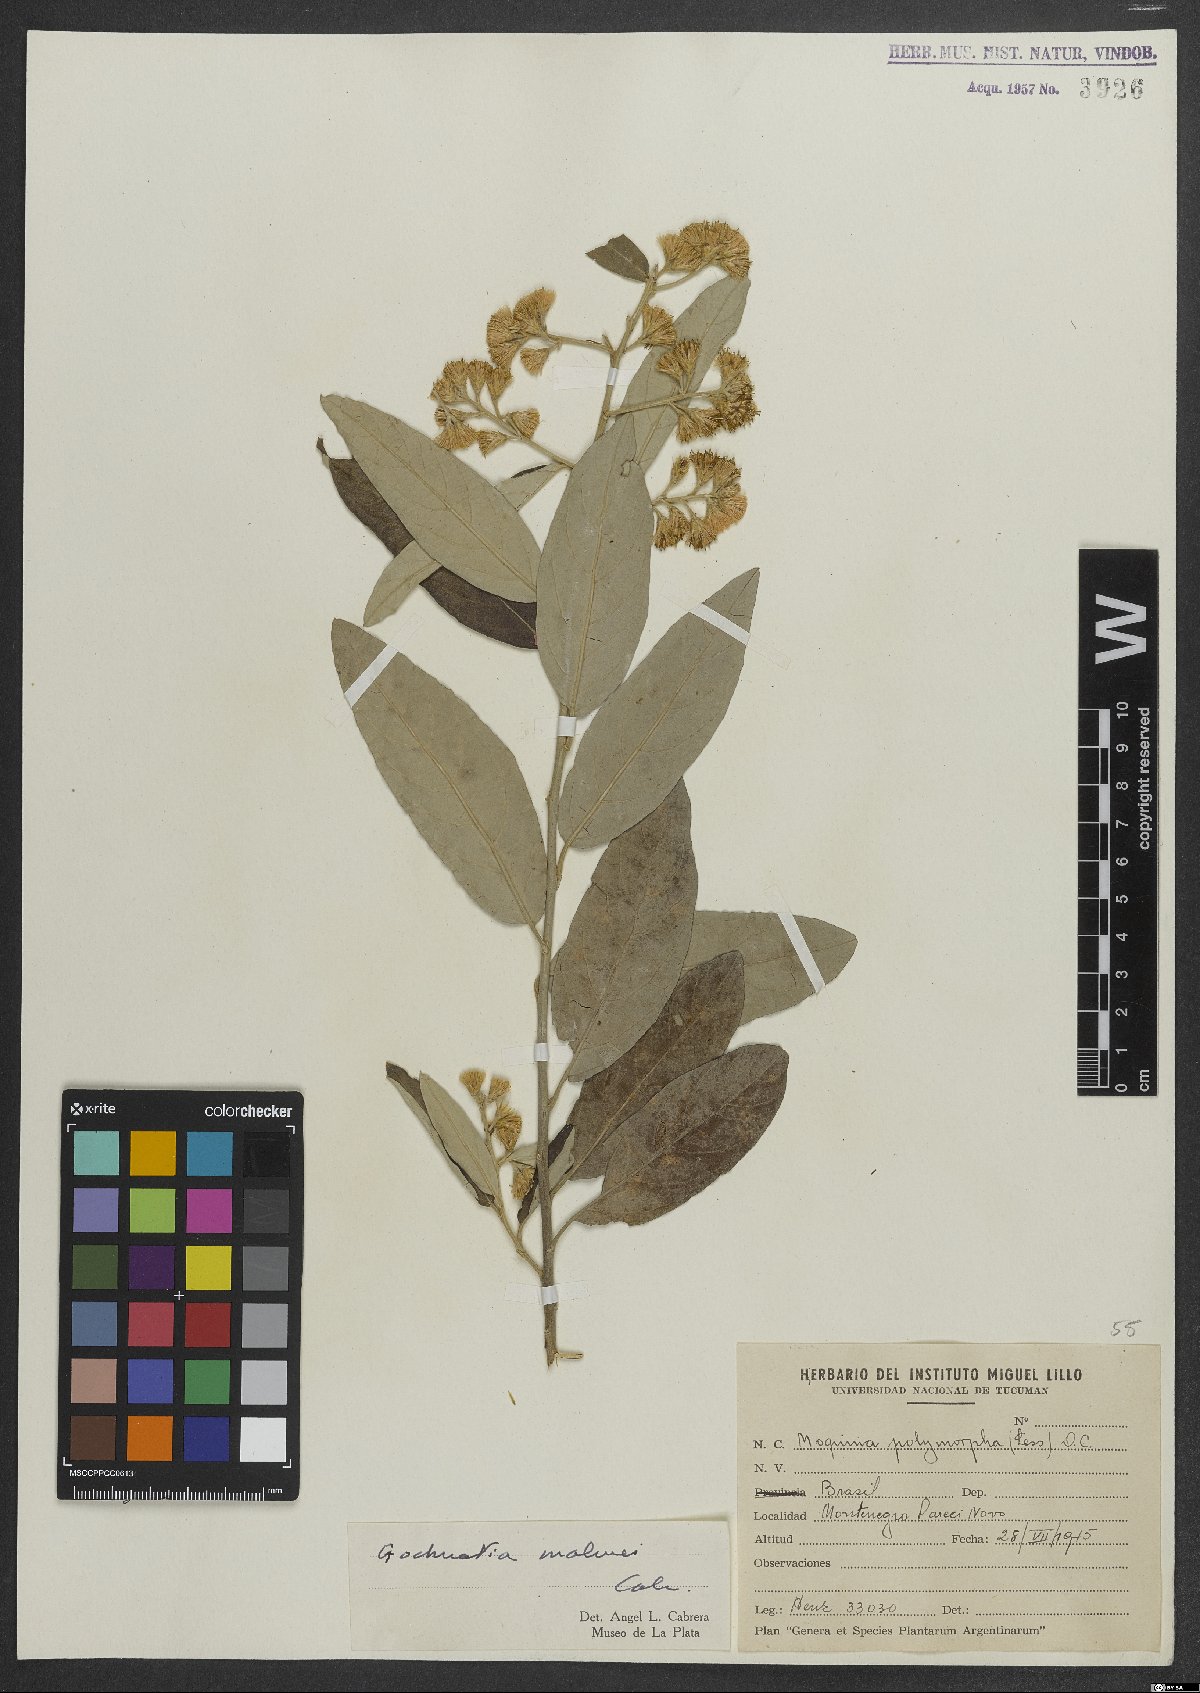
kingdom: Plantae
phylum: Tracheophyta
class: Magnoliopsida
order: Asterales
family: Asteraceae
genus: Moquiniastrum
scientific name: Moquiniastrum polymorphum
